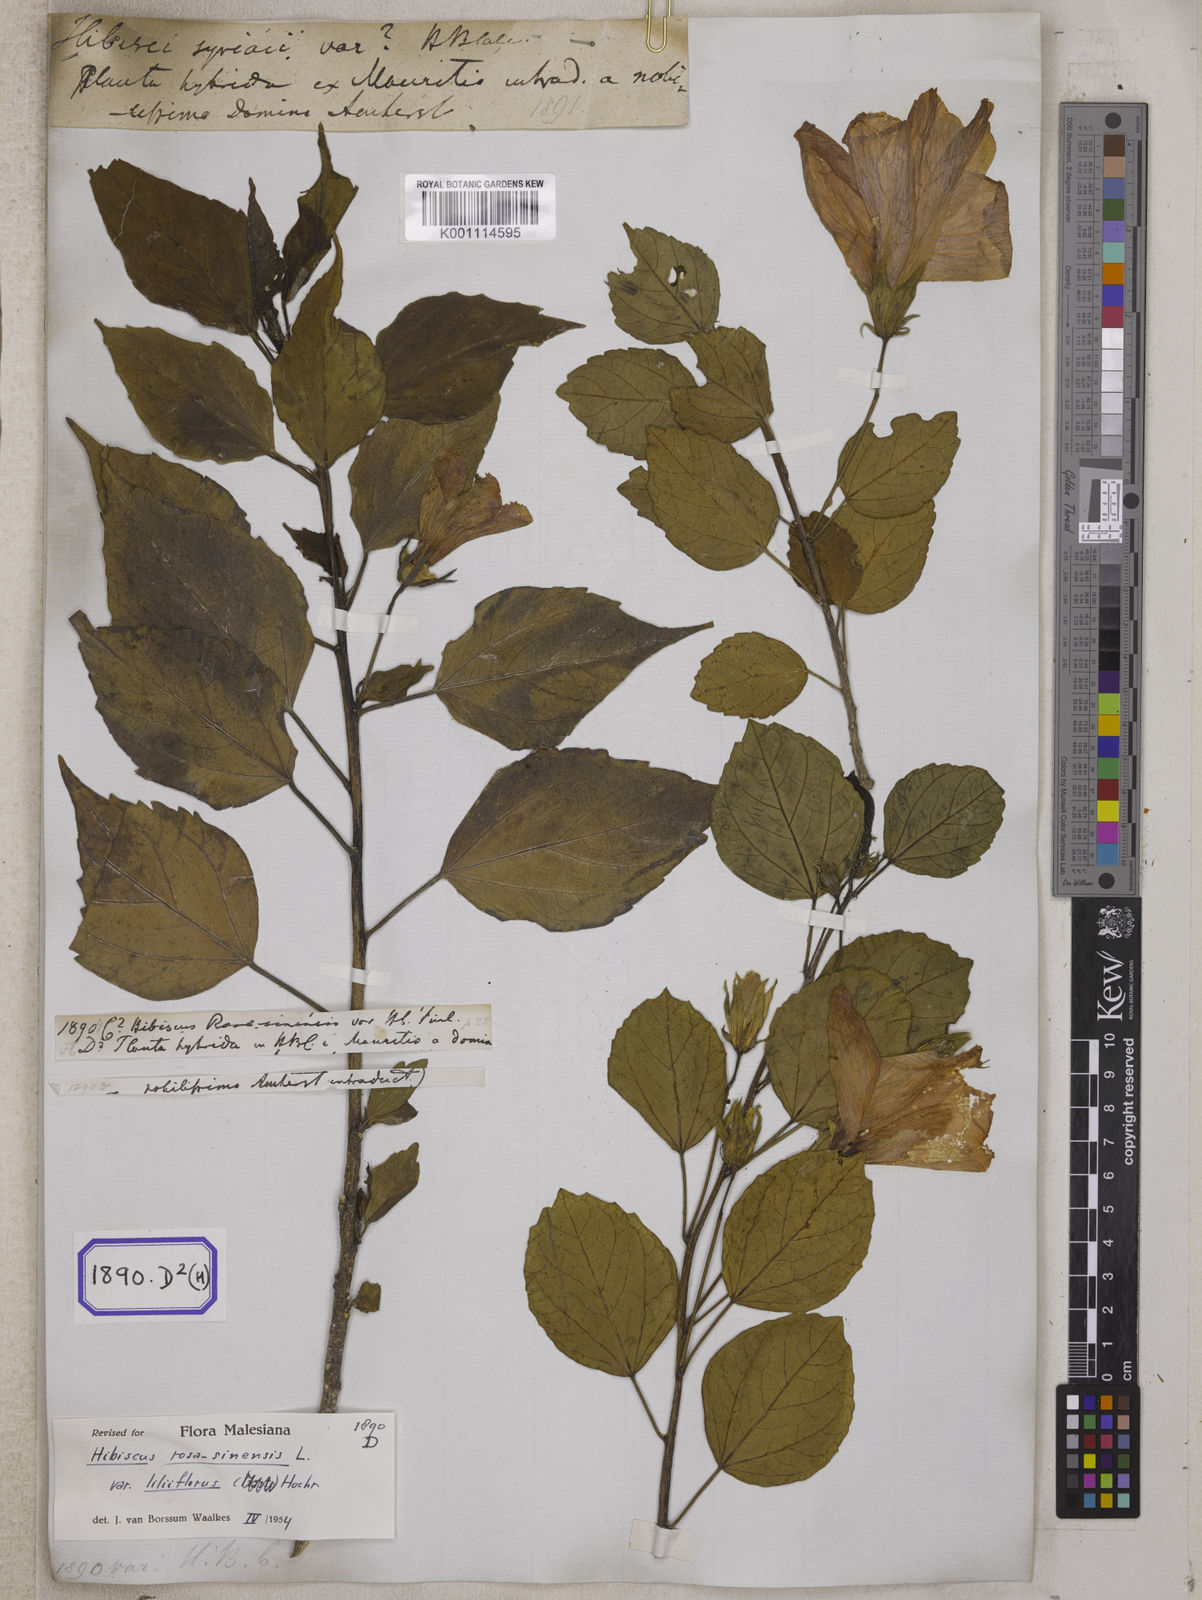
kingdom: Plantae
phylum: Tracheophyta
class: Magnoliopsida
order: Malvales
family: Malvaceae
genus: Hibiscus
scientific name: Hibiscus rosa-sinensis
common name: Hibiscus
